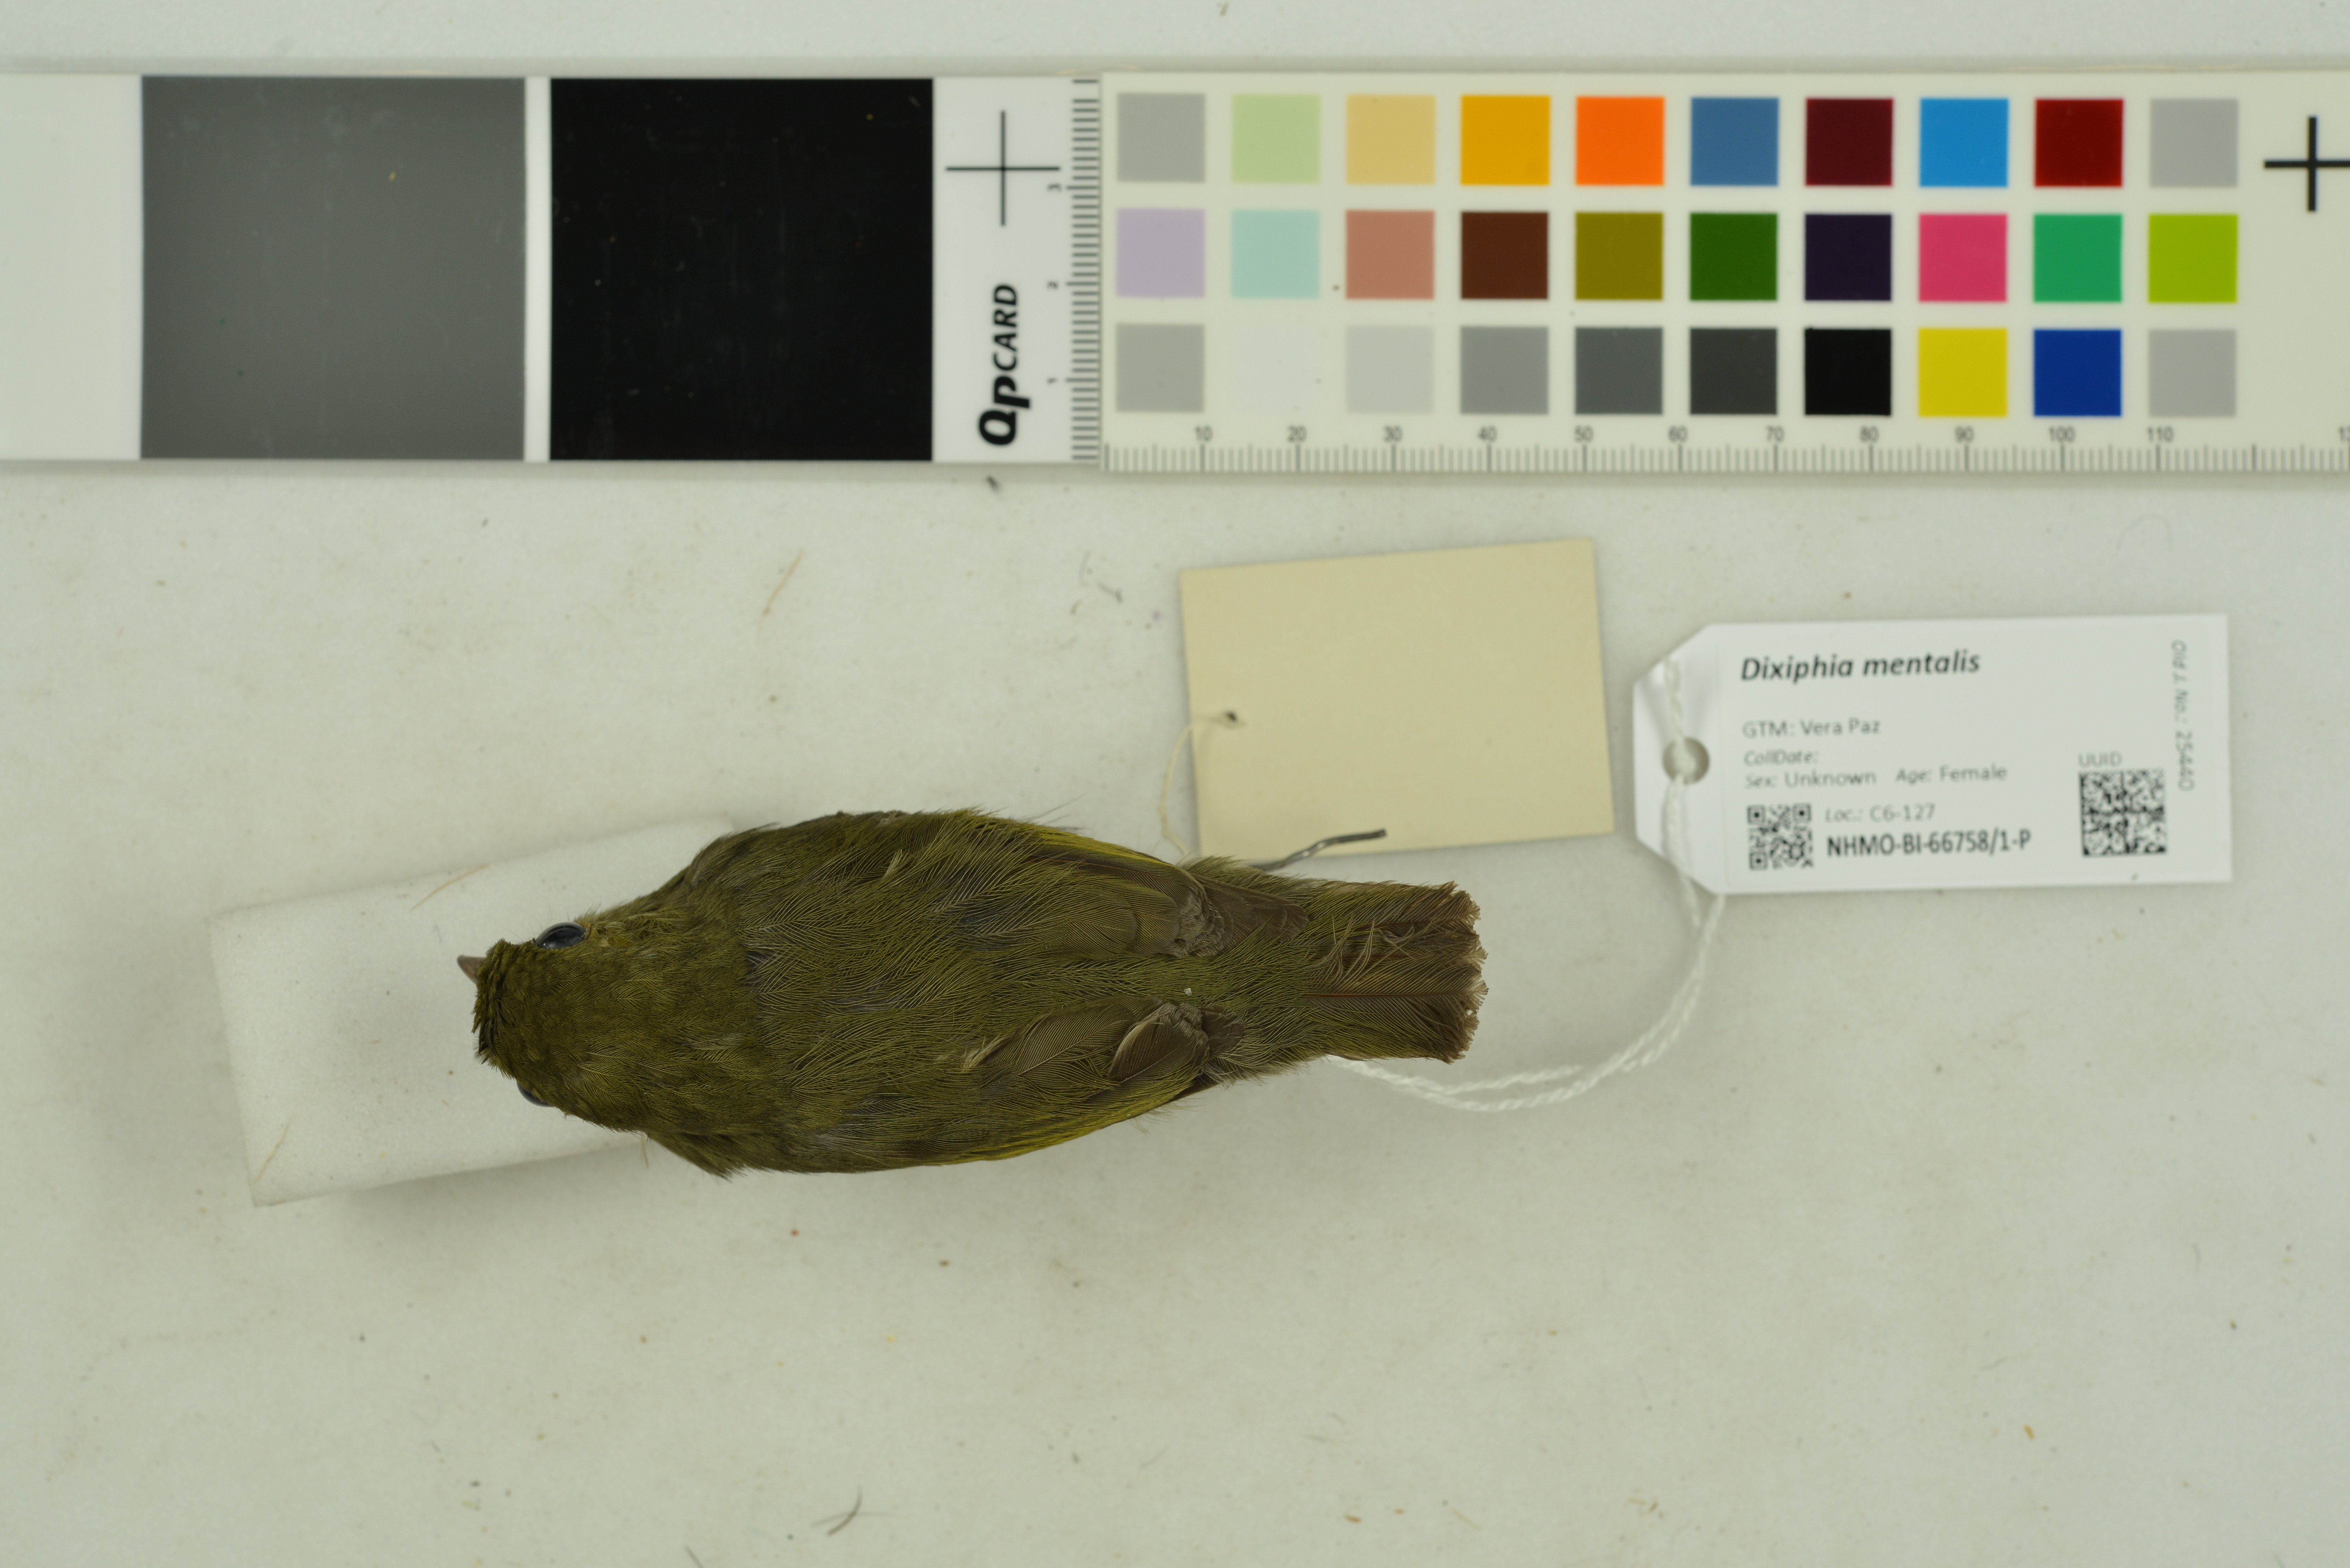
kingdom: Animalia
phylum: Chordata
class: Aves
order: Passeriformes
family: Pipridae
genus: Pipra
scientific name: Pipra mentalis
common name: Red-capped manakin
